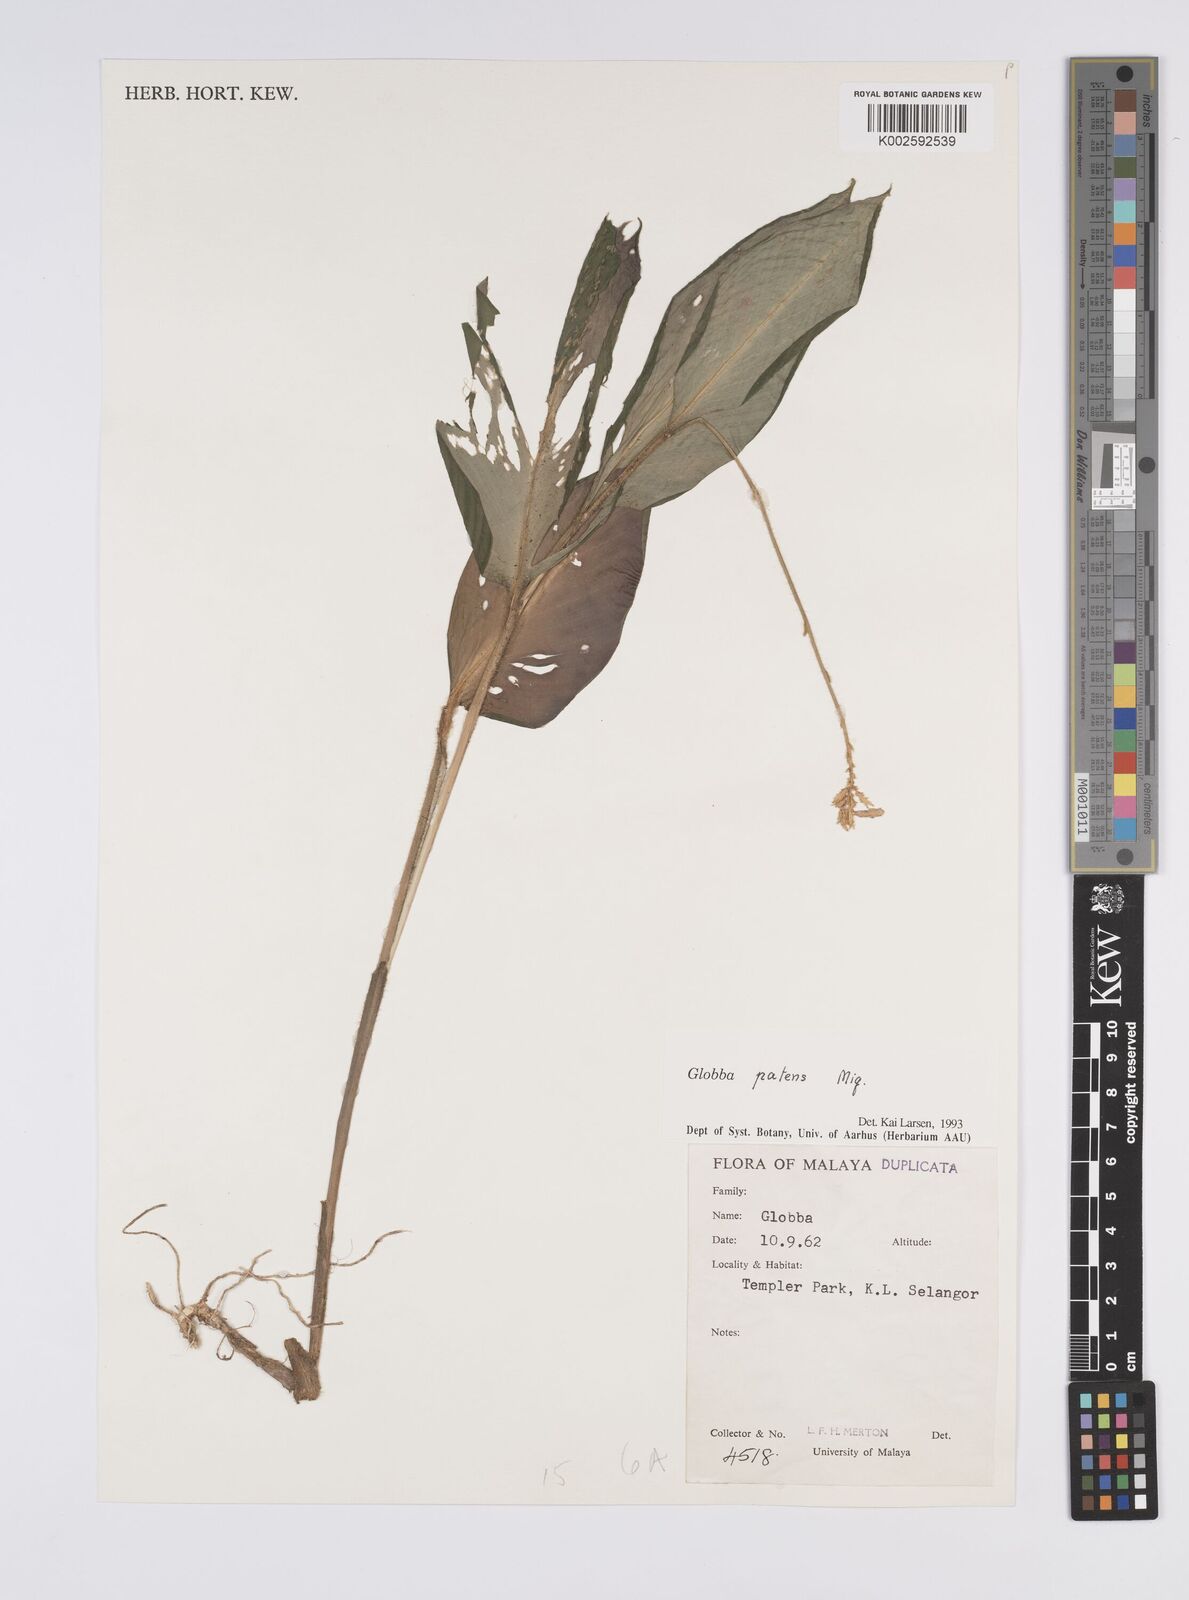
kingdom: Plantae
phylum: Tracheophyta
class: Liliopsida
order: Zingiberales
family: Zingiberaceae
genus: Globba
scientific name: Globba patens
